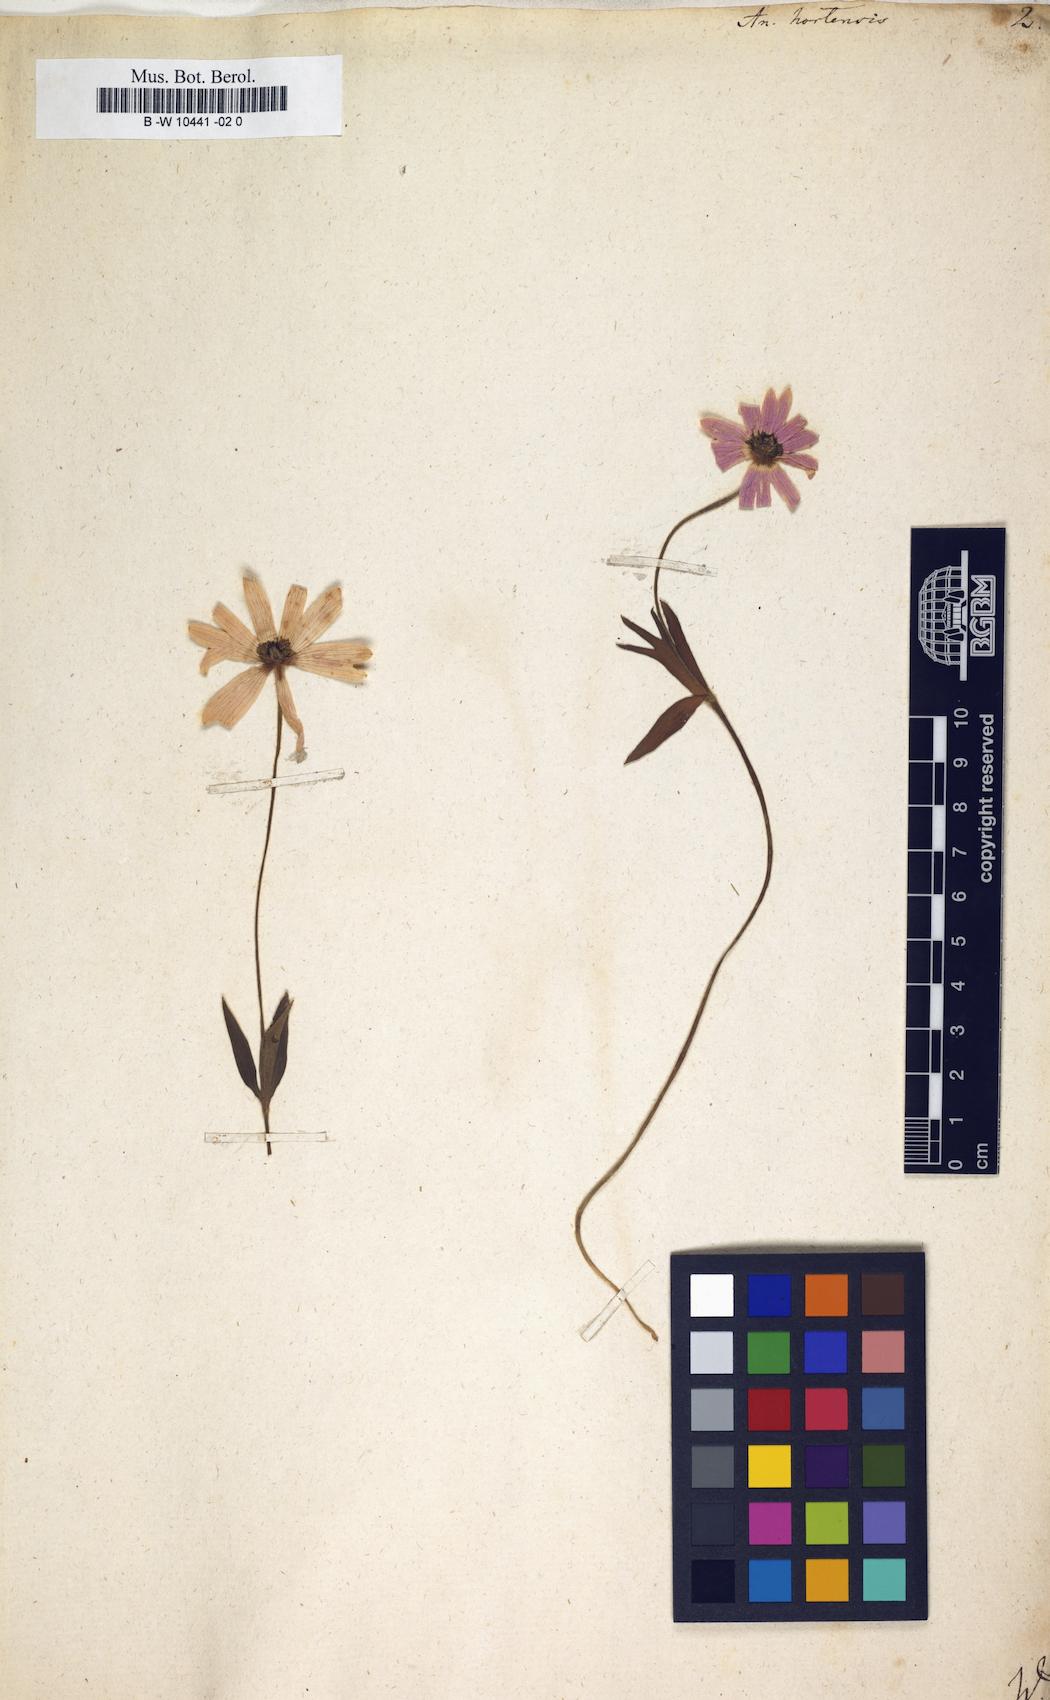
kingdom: Plantae
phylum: Tracheophyta
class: Magnoliopsida
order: Ranunculales
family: Ranunculaceae
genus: Anemone
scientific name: Anemone hortensis
